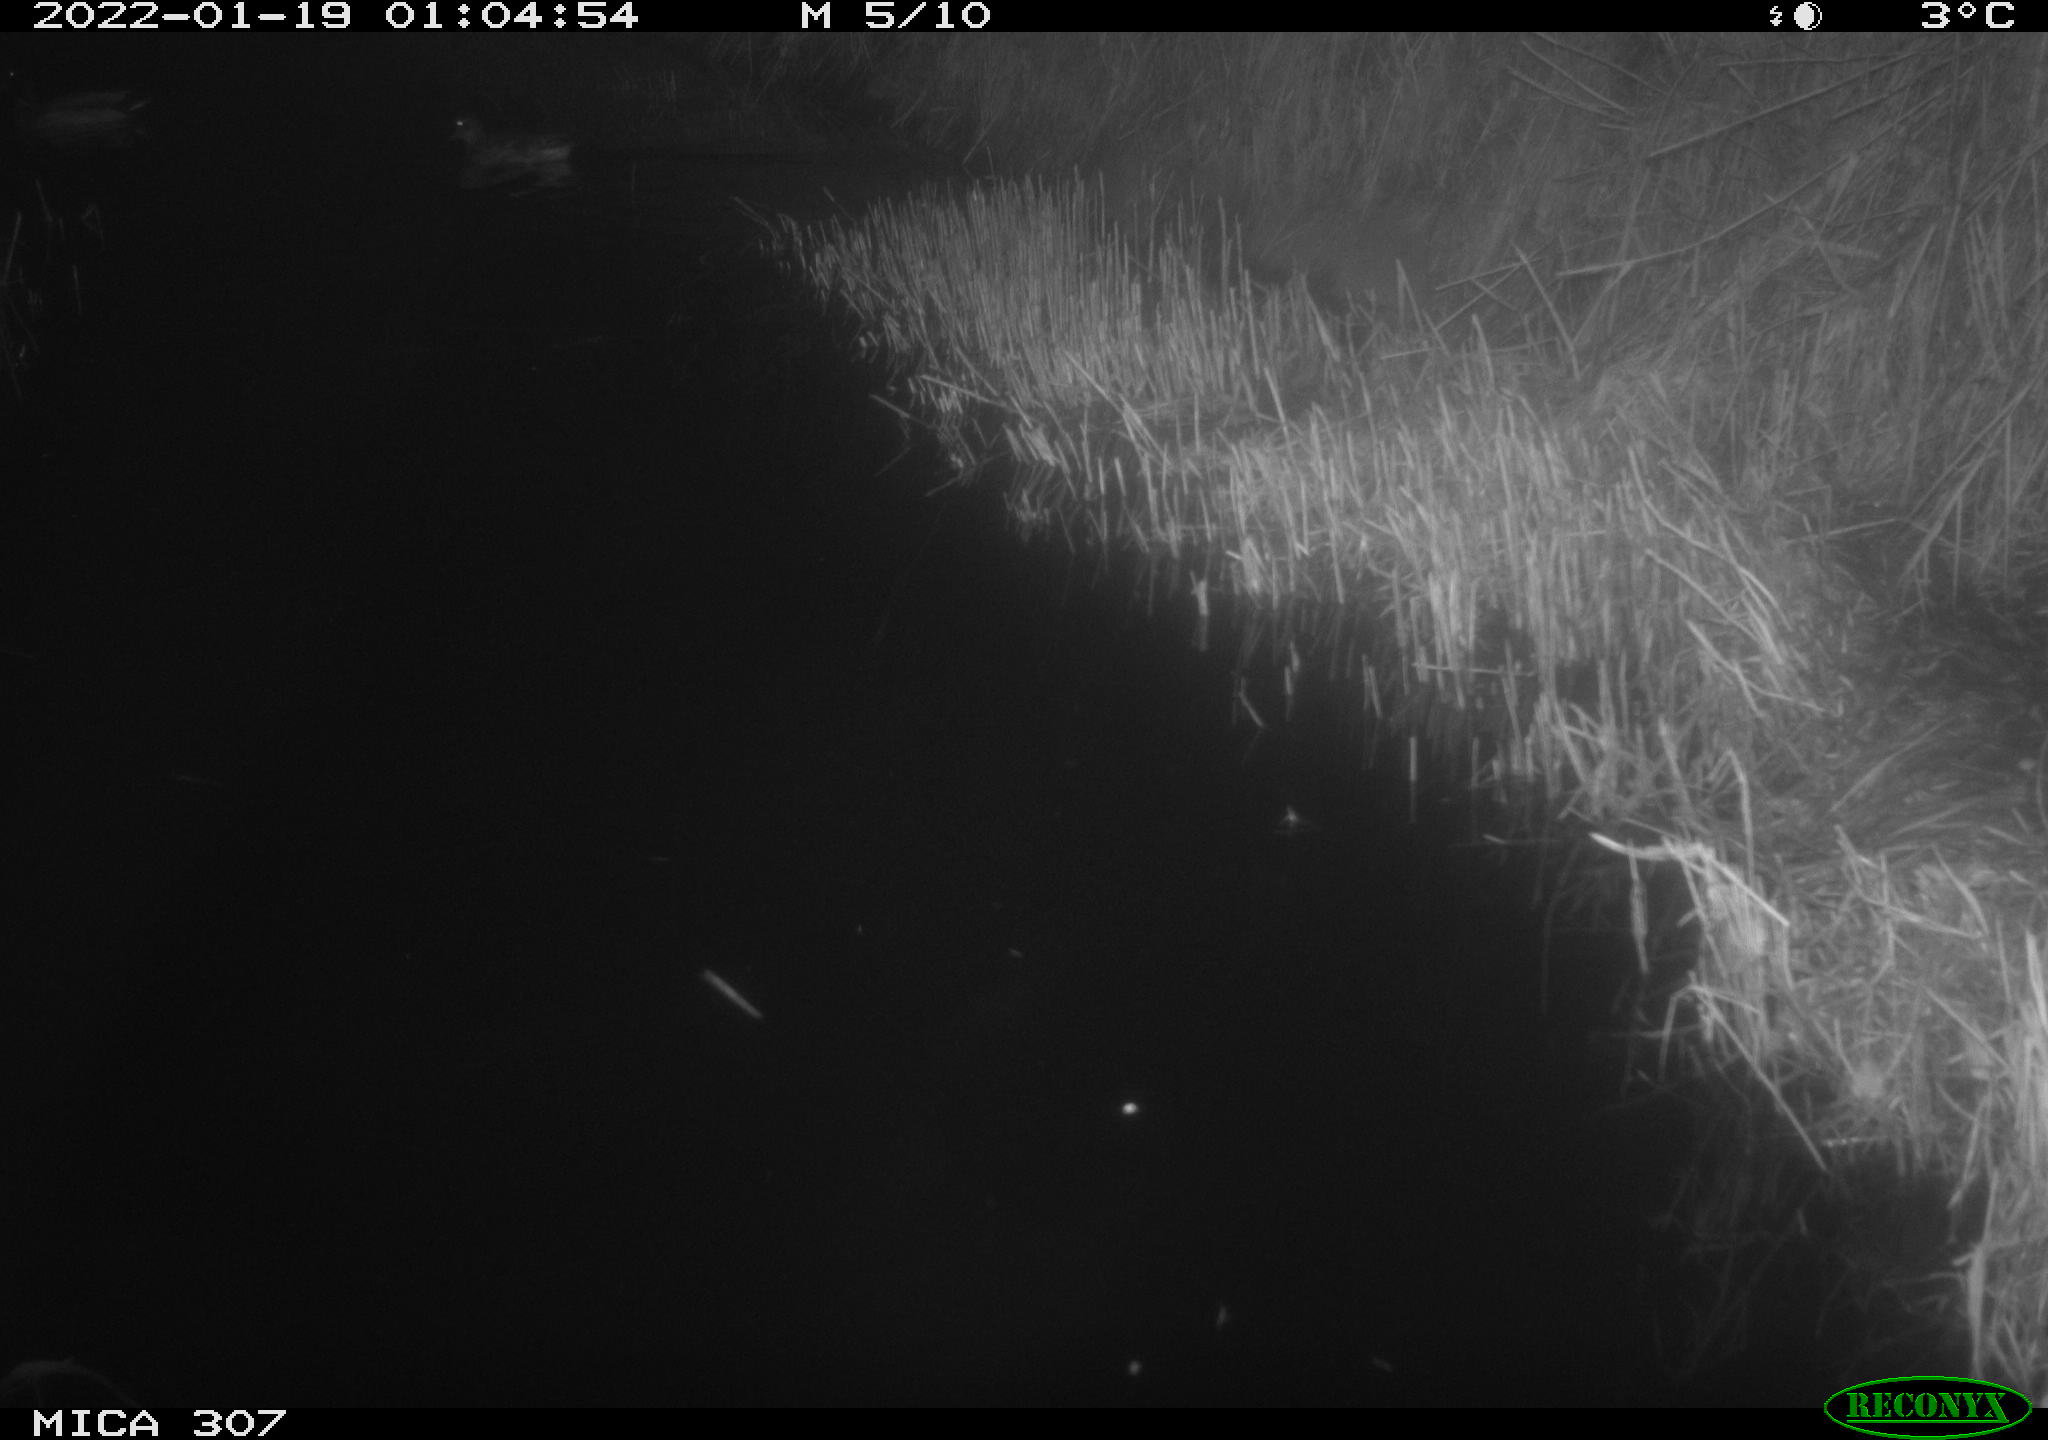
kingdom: Animalia
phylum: Chordata
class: Aves
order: Anseriformes
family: Anatidae
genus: Anas
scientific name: Anas
